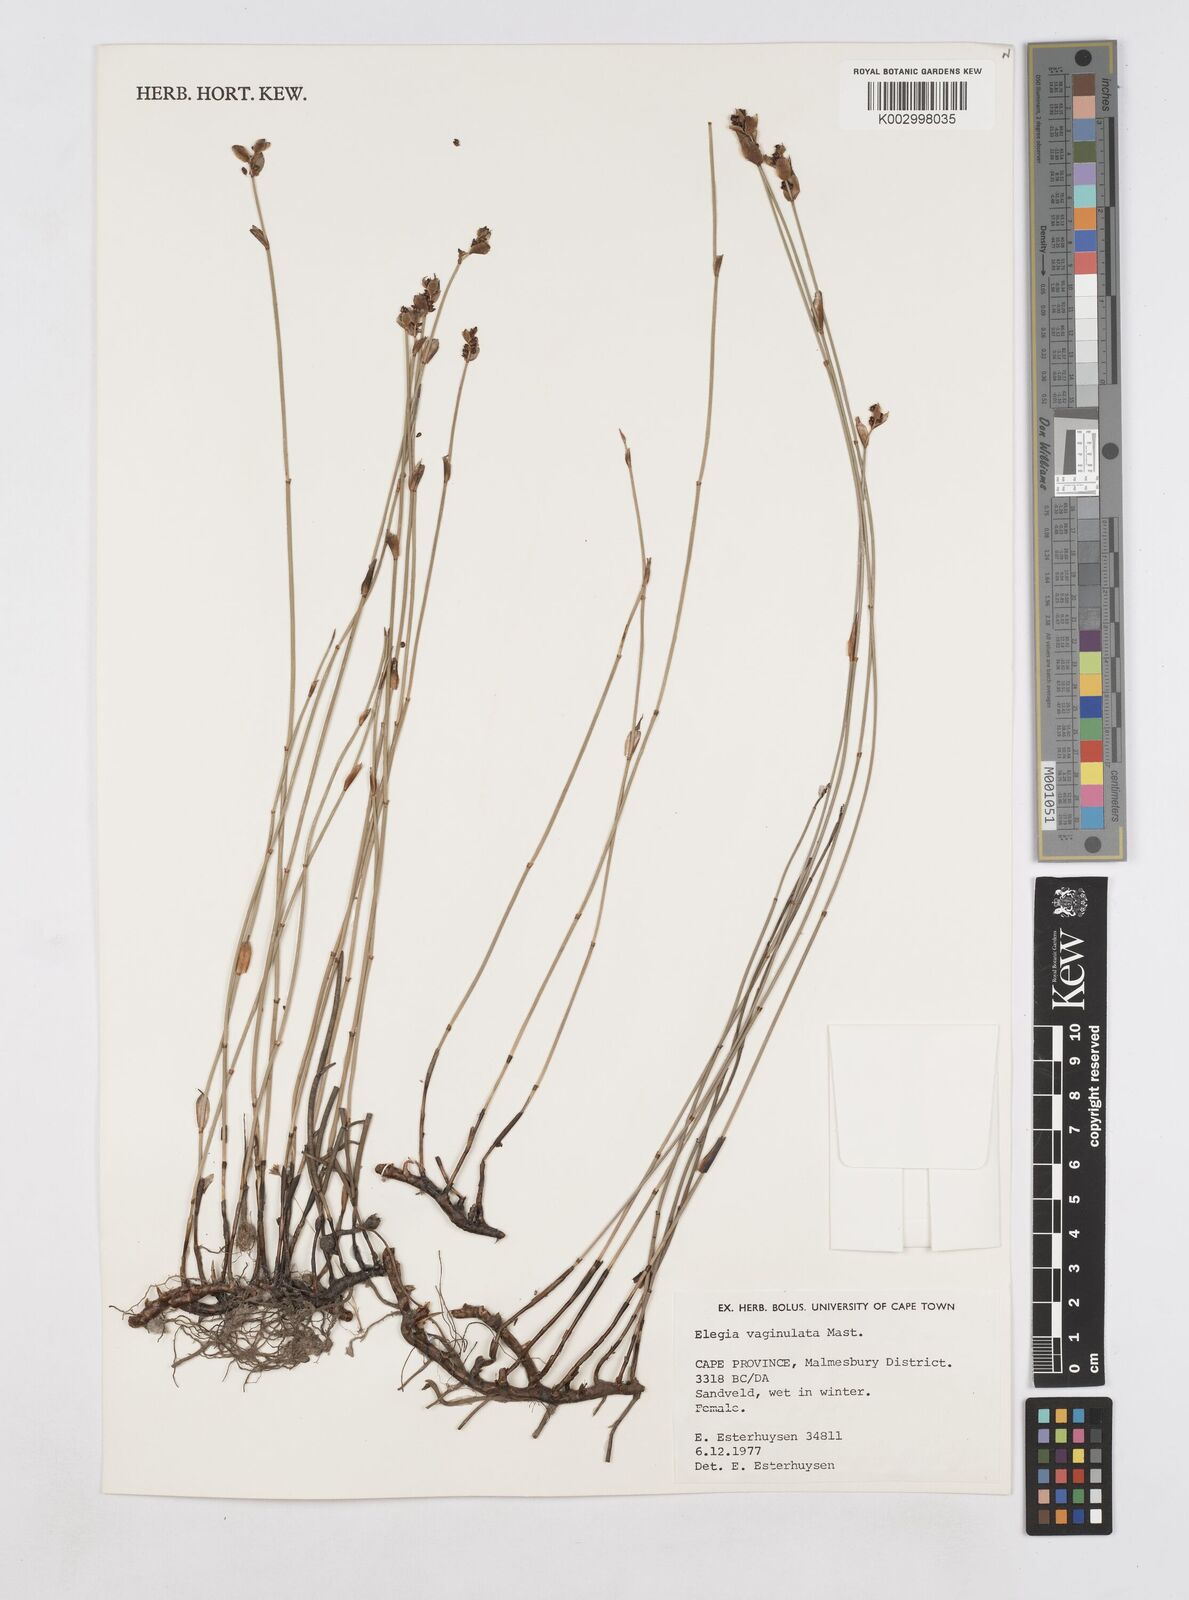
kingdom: Plantae
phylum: Tracheophyta
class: Liliopsida
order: Poales
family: Restionaceae
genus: Elegia
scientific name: Elegia vaginulata
